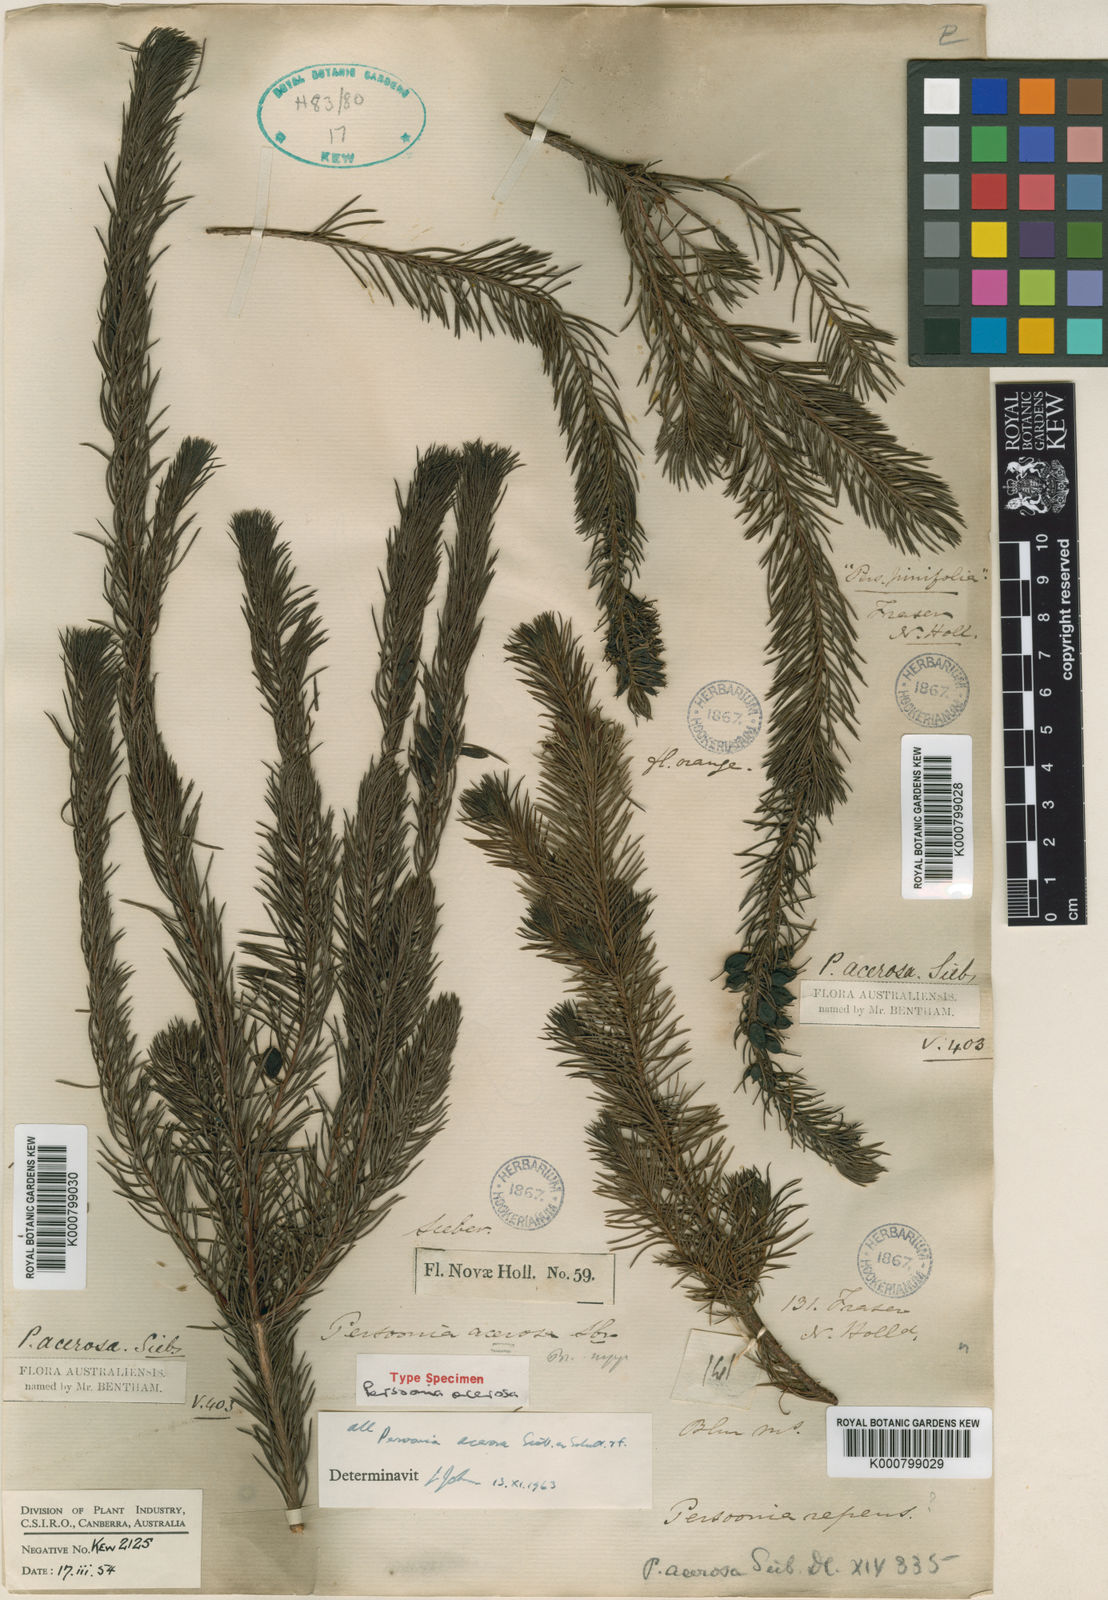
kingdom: Plantae
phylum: Tracheophyta
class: Magnoliopsida
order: Proteales
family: Proteaceae
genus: Persoonia
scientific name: Persoonia
